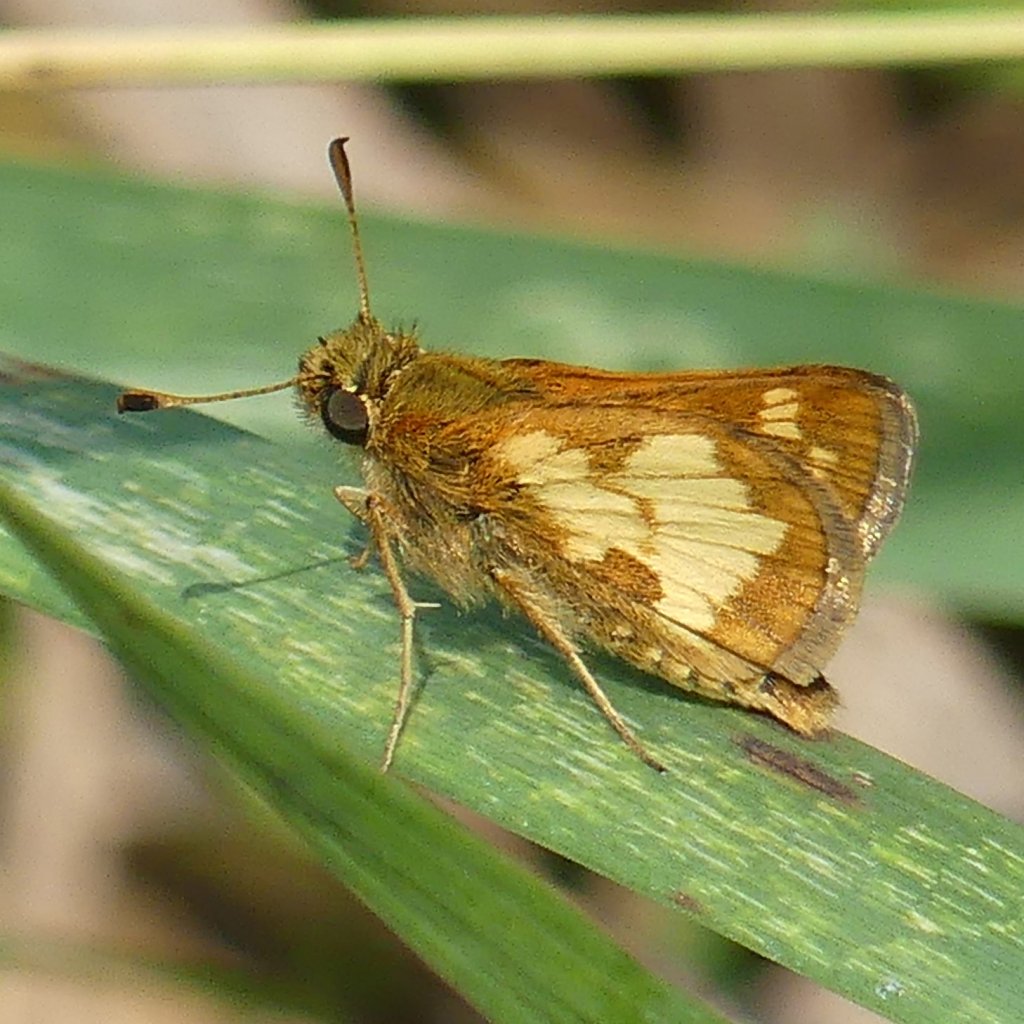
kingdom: Animalia
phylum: Arthropoda
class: Insecta
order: Lepidoptera
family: Hesperiidae
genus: Polites
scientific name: Polites coras
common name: Peck's Skipper
